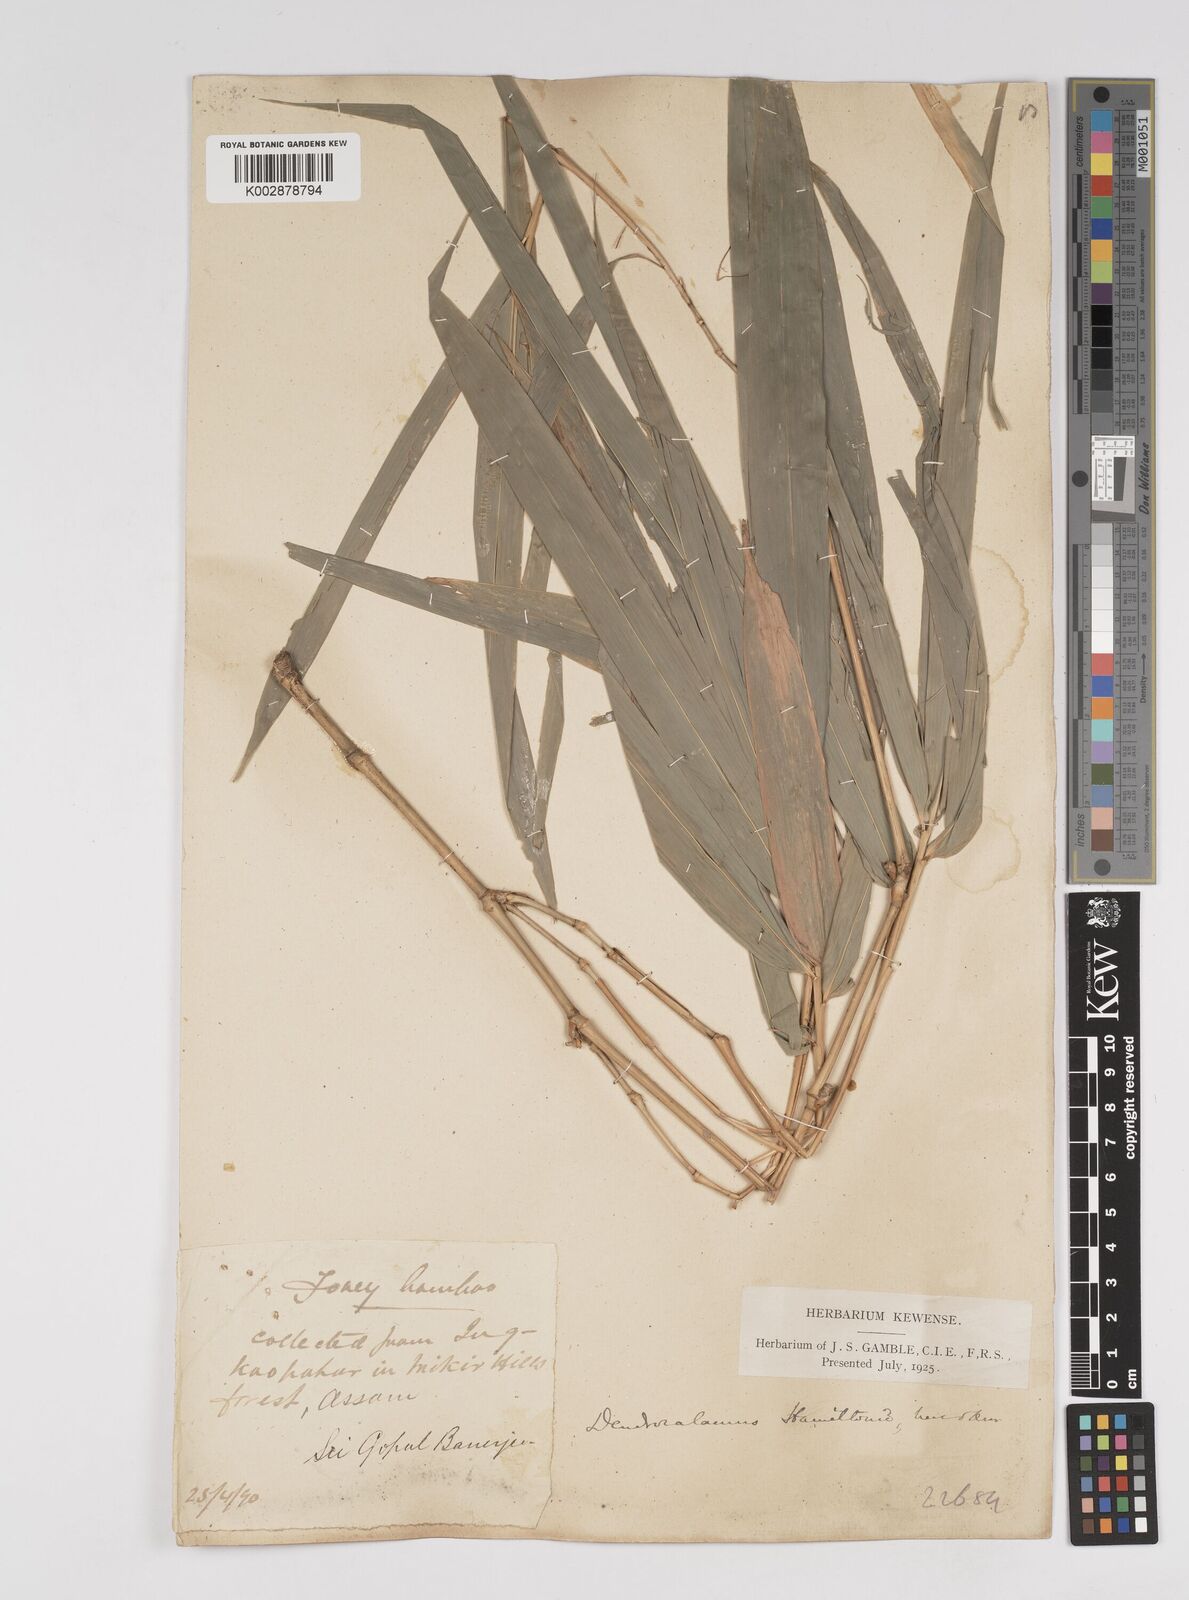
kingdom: Plantae
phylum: Tracheophyta
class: Liliopsida
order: Poales
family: Poaceae
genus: Dendrocalamus
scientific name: Dendrocalamus hamiltonii
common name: Tama bamboo
